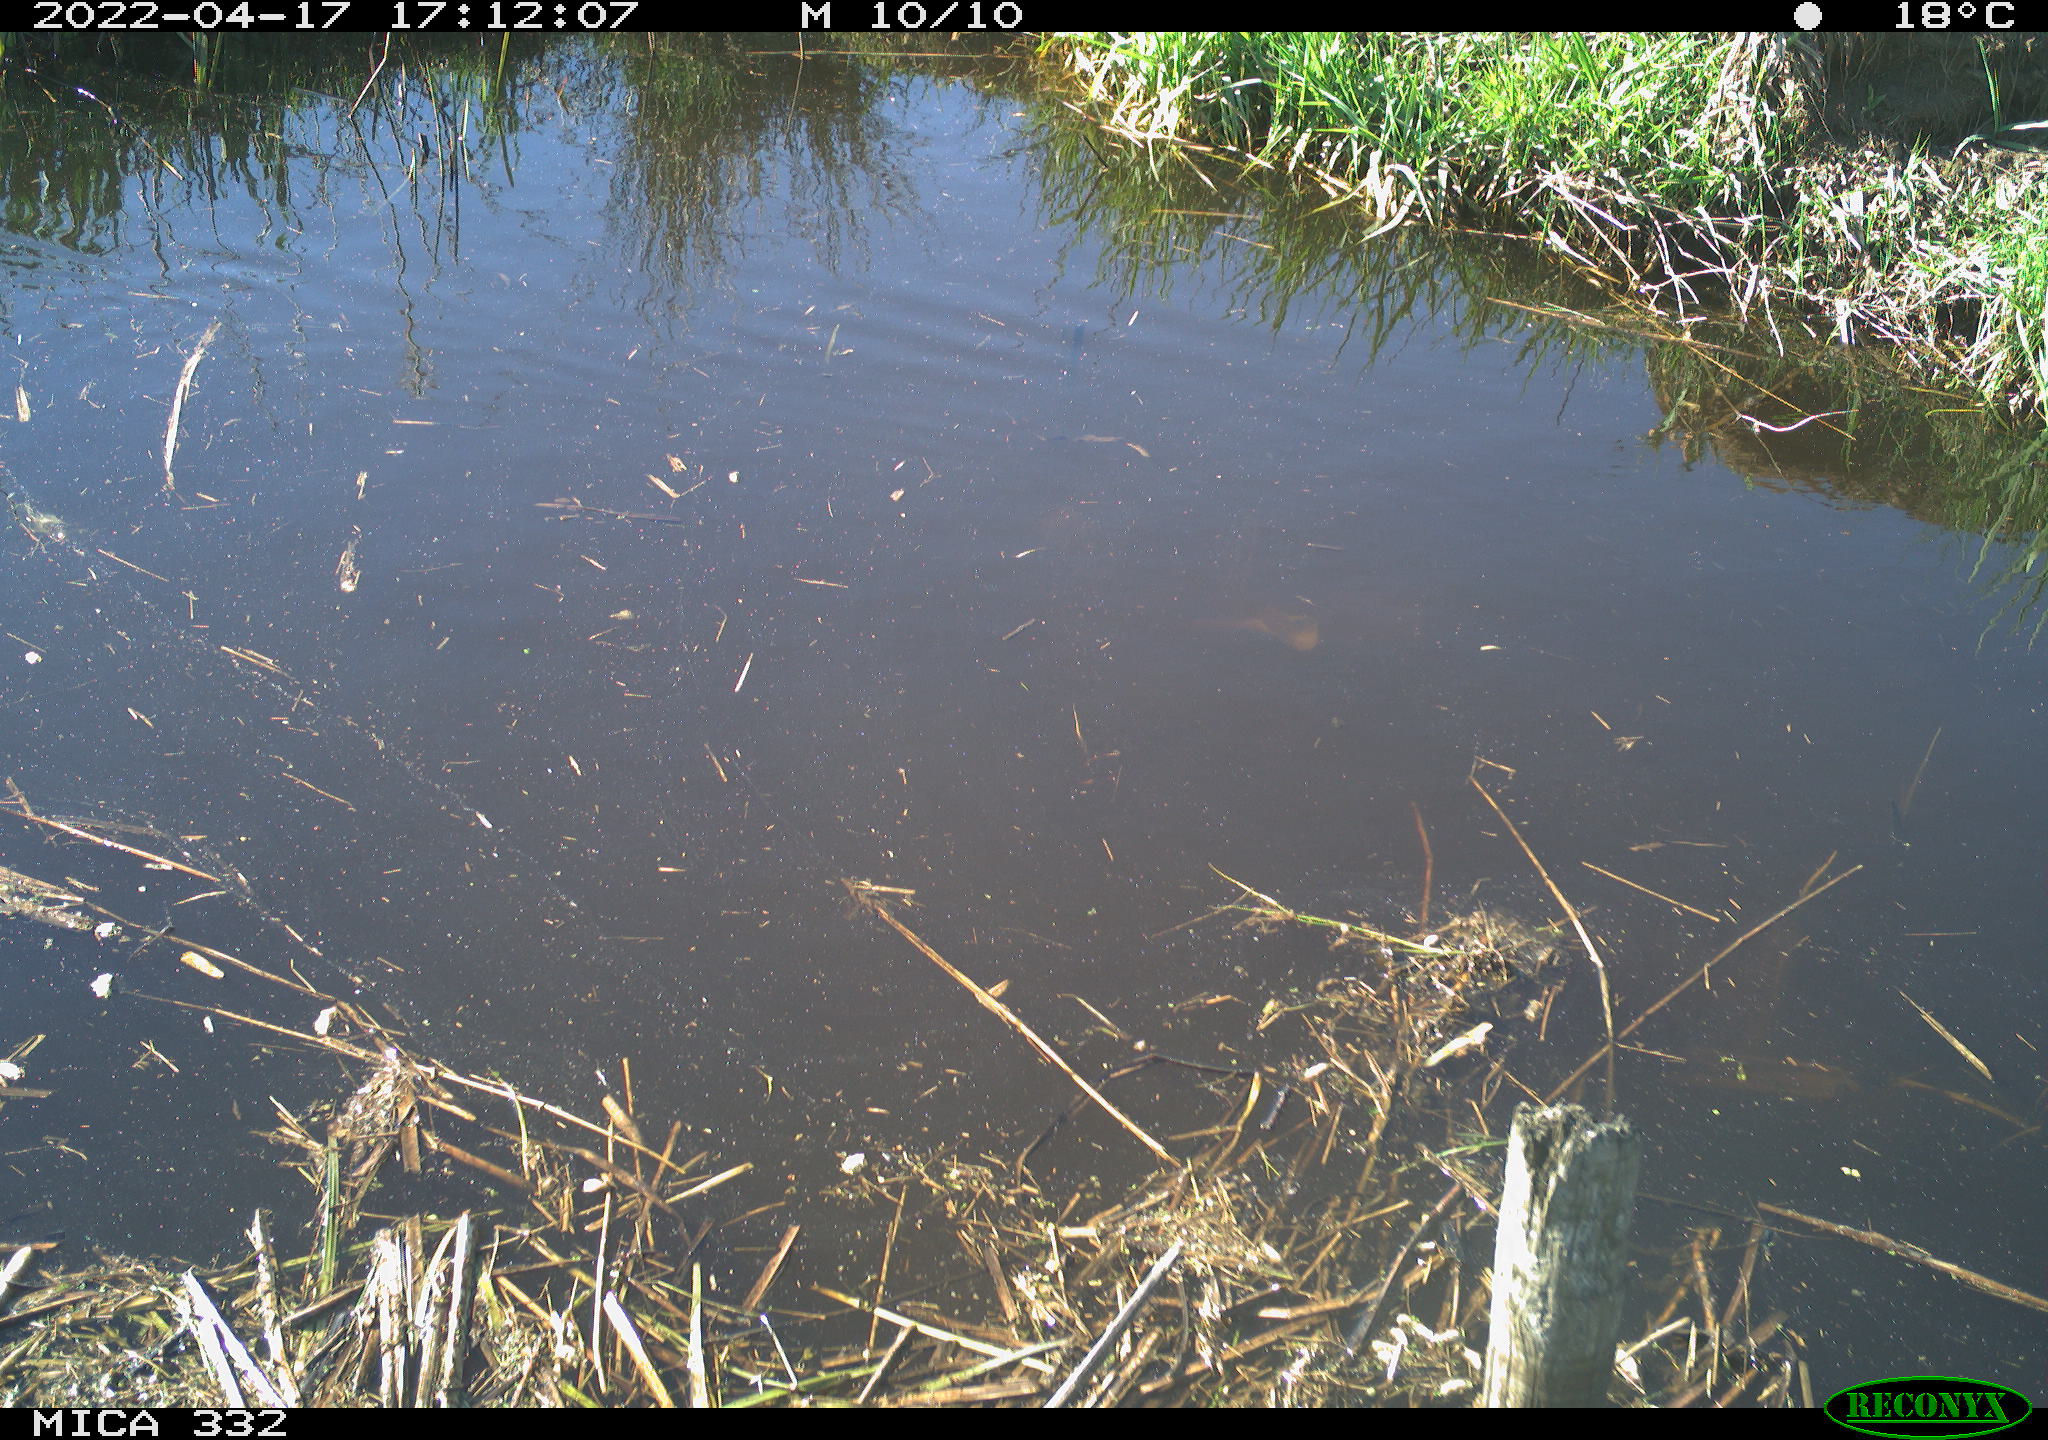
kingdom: Animalia
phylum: Chordata
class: Aves
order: Gruiformes
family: Rallidae
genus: Gallinula
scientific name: Gallinula chloropus
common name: Common moorhen
